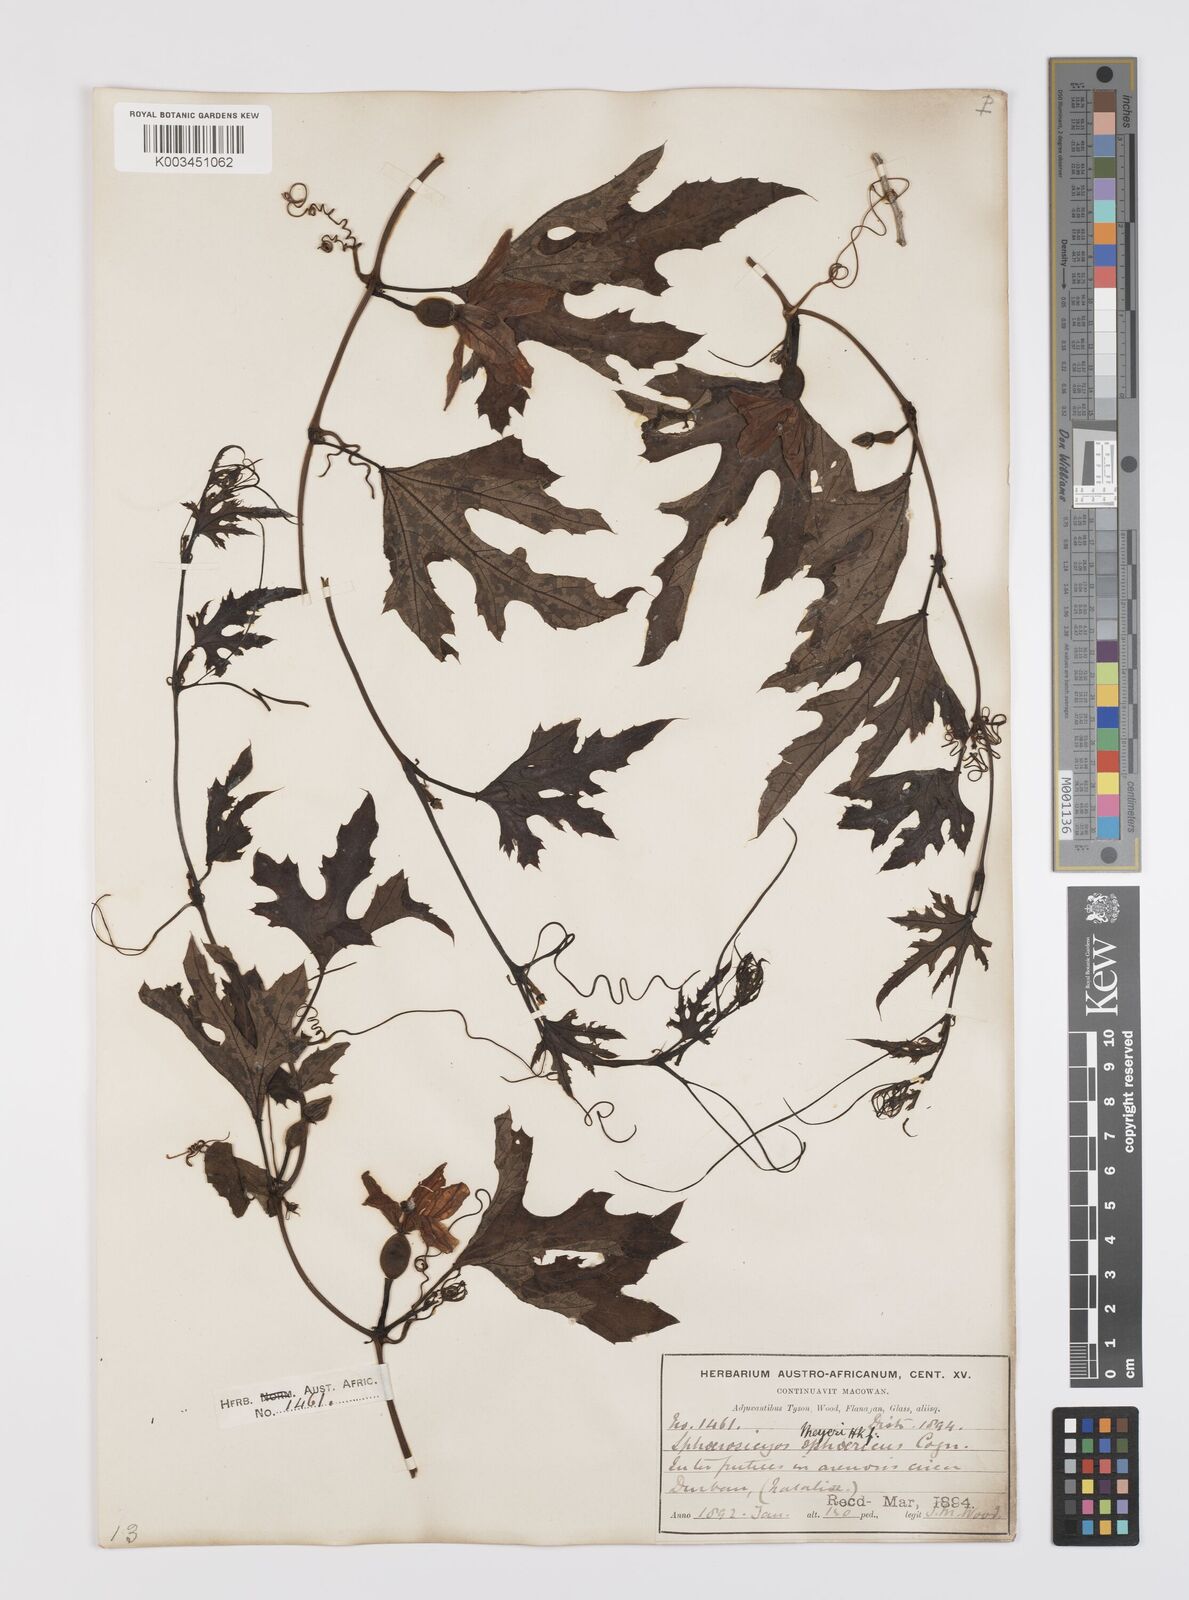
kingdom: Plantae
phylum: Tracheophyta
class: Magnoliopsida
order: Cucurbitales
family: Cucurbitaceae
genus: Lagenaria
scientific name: Lagenaria sphaerica
